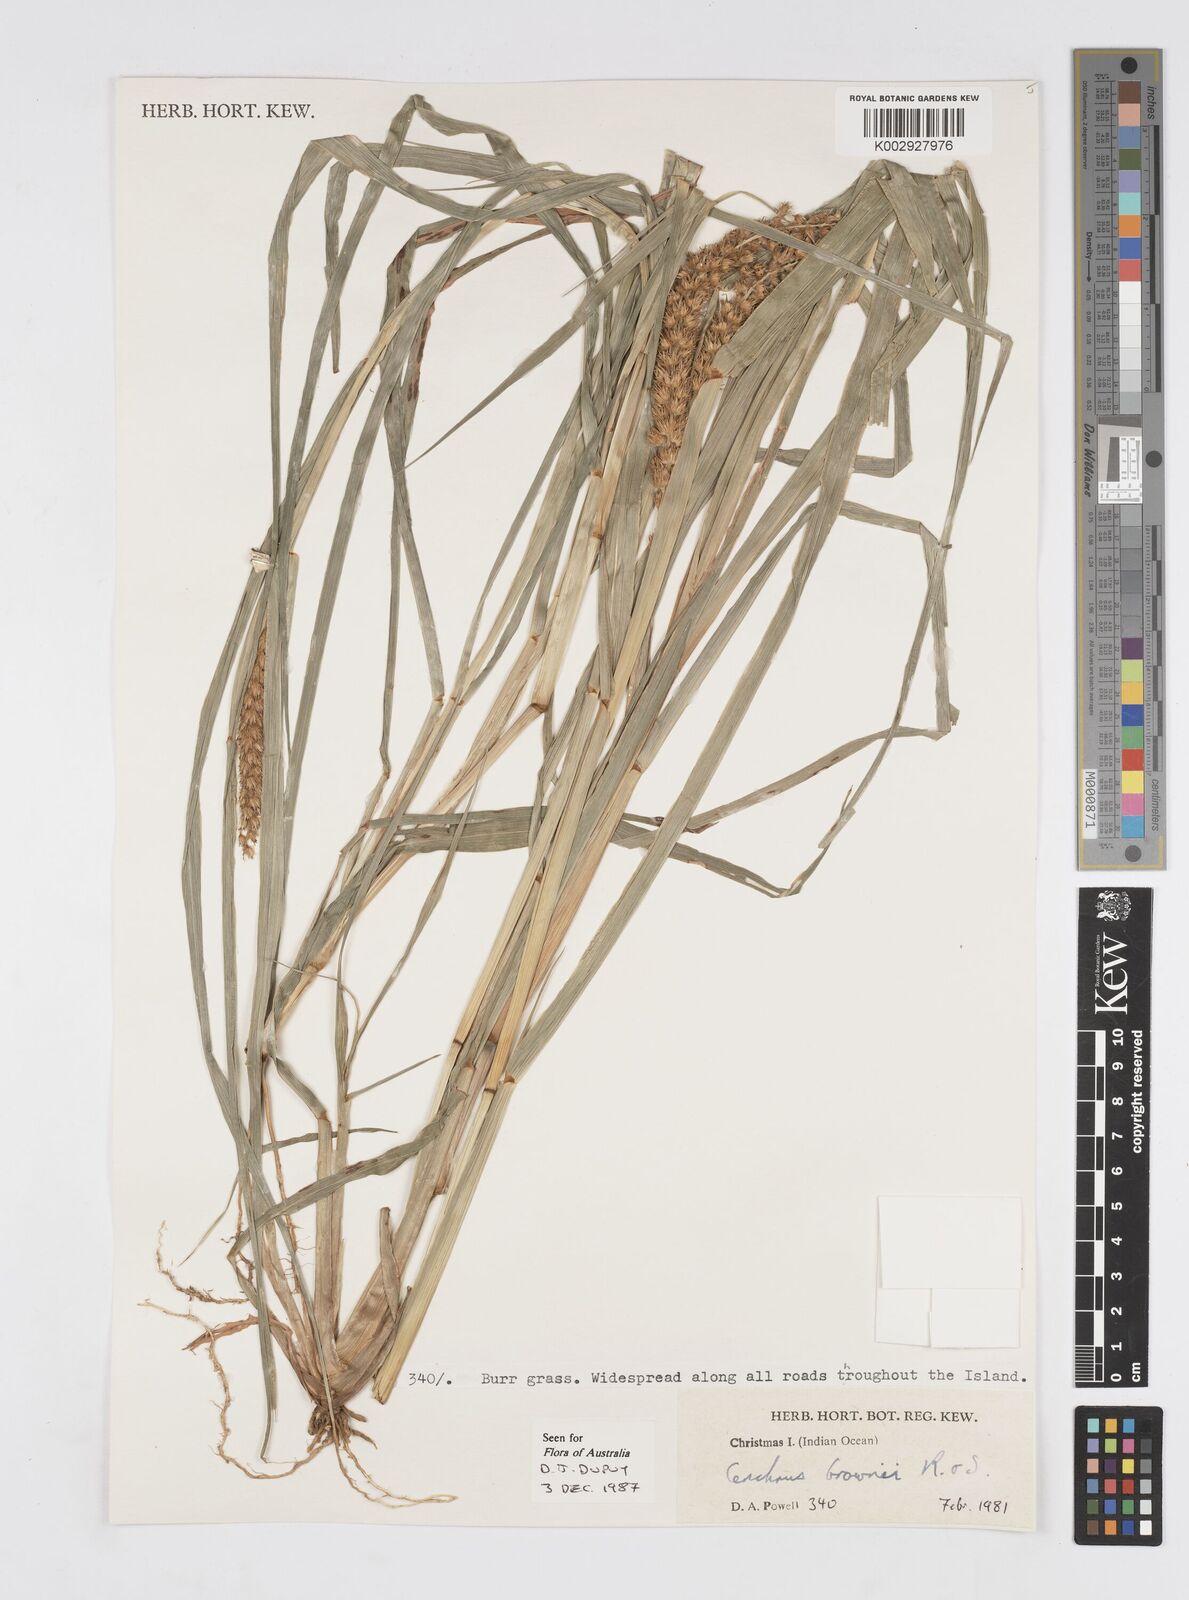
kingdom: Plantae
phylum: Tracheophyta
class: Liliopsida
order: Poales
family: Poaceae
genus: Cenchrus
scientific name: Cenchrus brownii
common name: Slim-bristle sandbur
